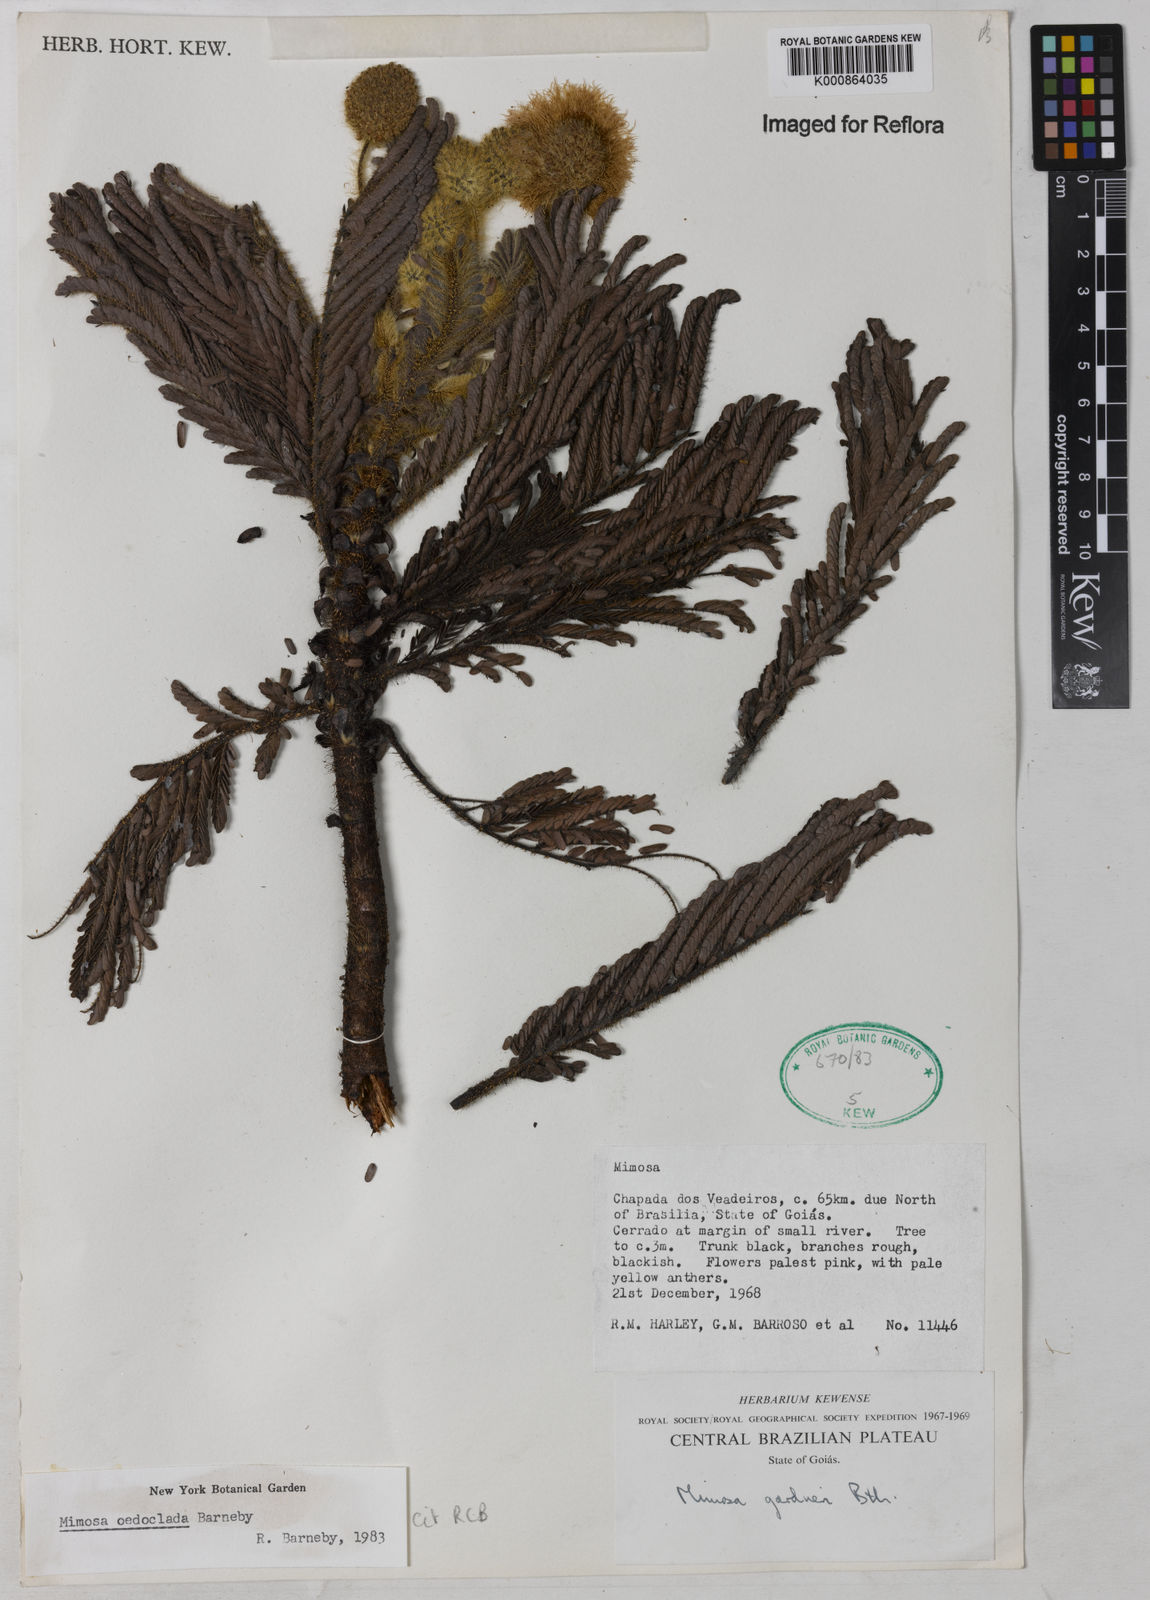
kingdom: Plantae
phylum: Tracheophyta
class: Magnoliopsida
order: Fabales
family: Fabaceae
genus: Mimosa
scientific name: Mimosa oedoclada
